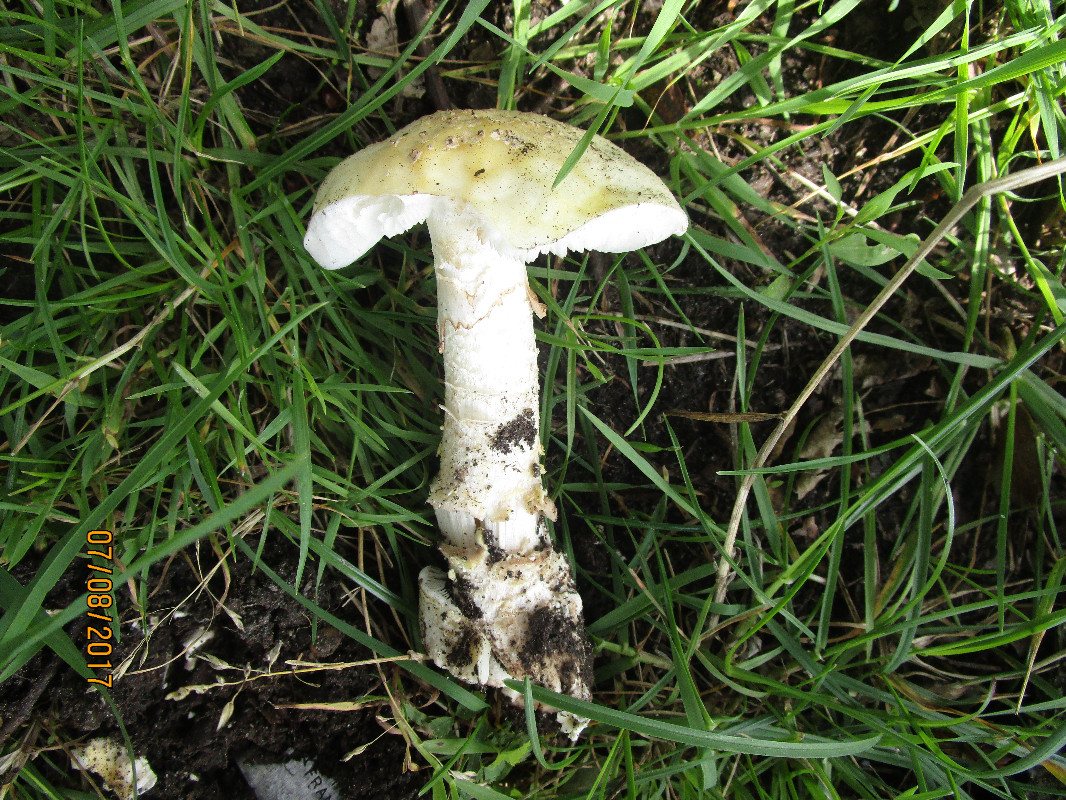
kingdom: Fungi
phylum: Basidiomycota
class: Agaricomycetes
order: Agaricales
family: Amanitaceae
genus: Amanita
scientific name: Amanita franchetii
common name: gulrandet fluesvamp
